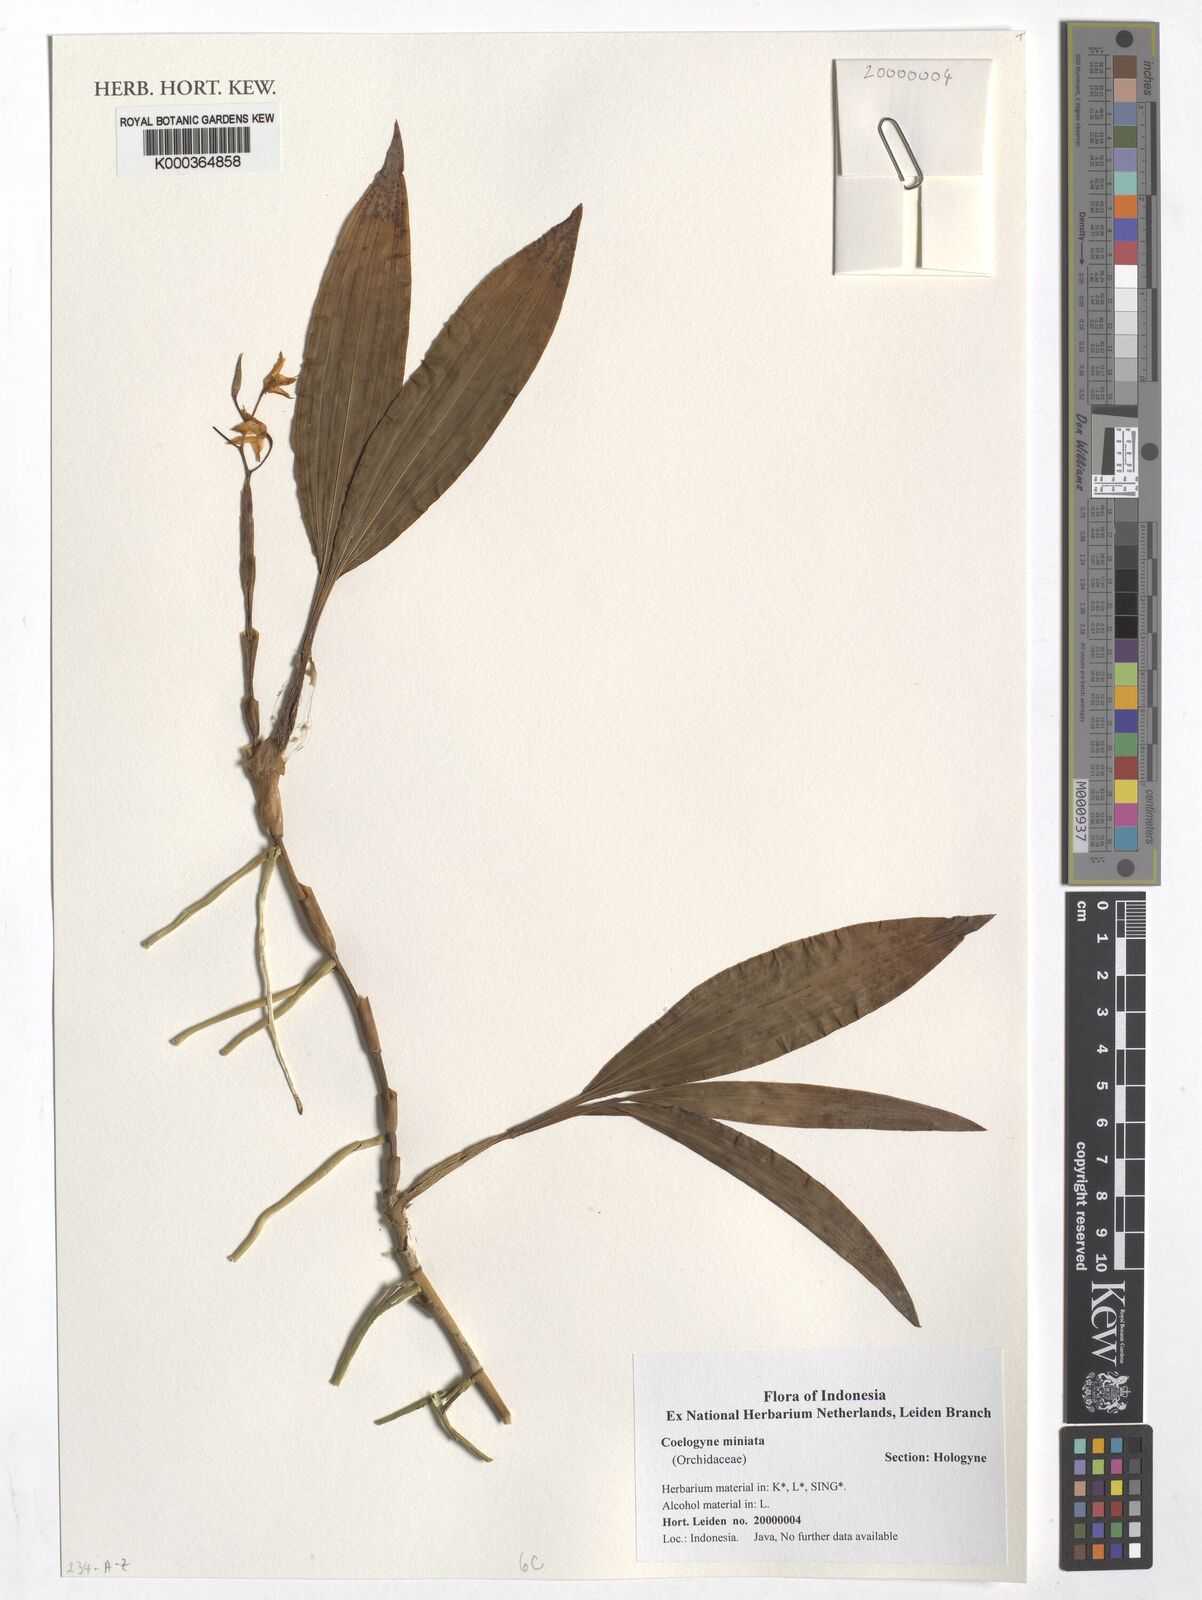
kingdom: Plantae
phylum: Tracheophyta
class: Liliopsida
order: Asparagales
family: Orchidaceae
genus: Coelogyne
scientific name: Coelogyne miniata
